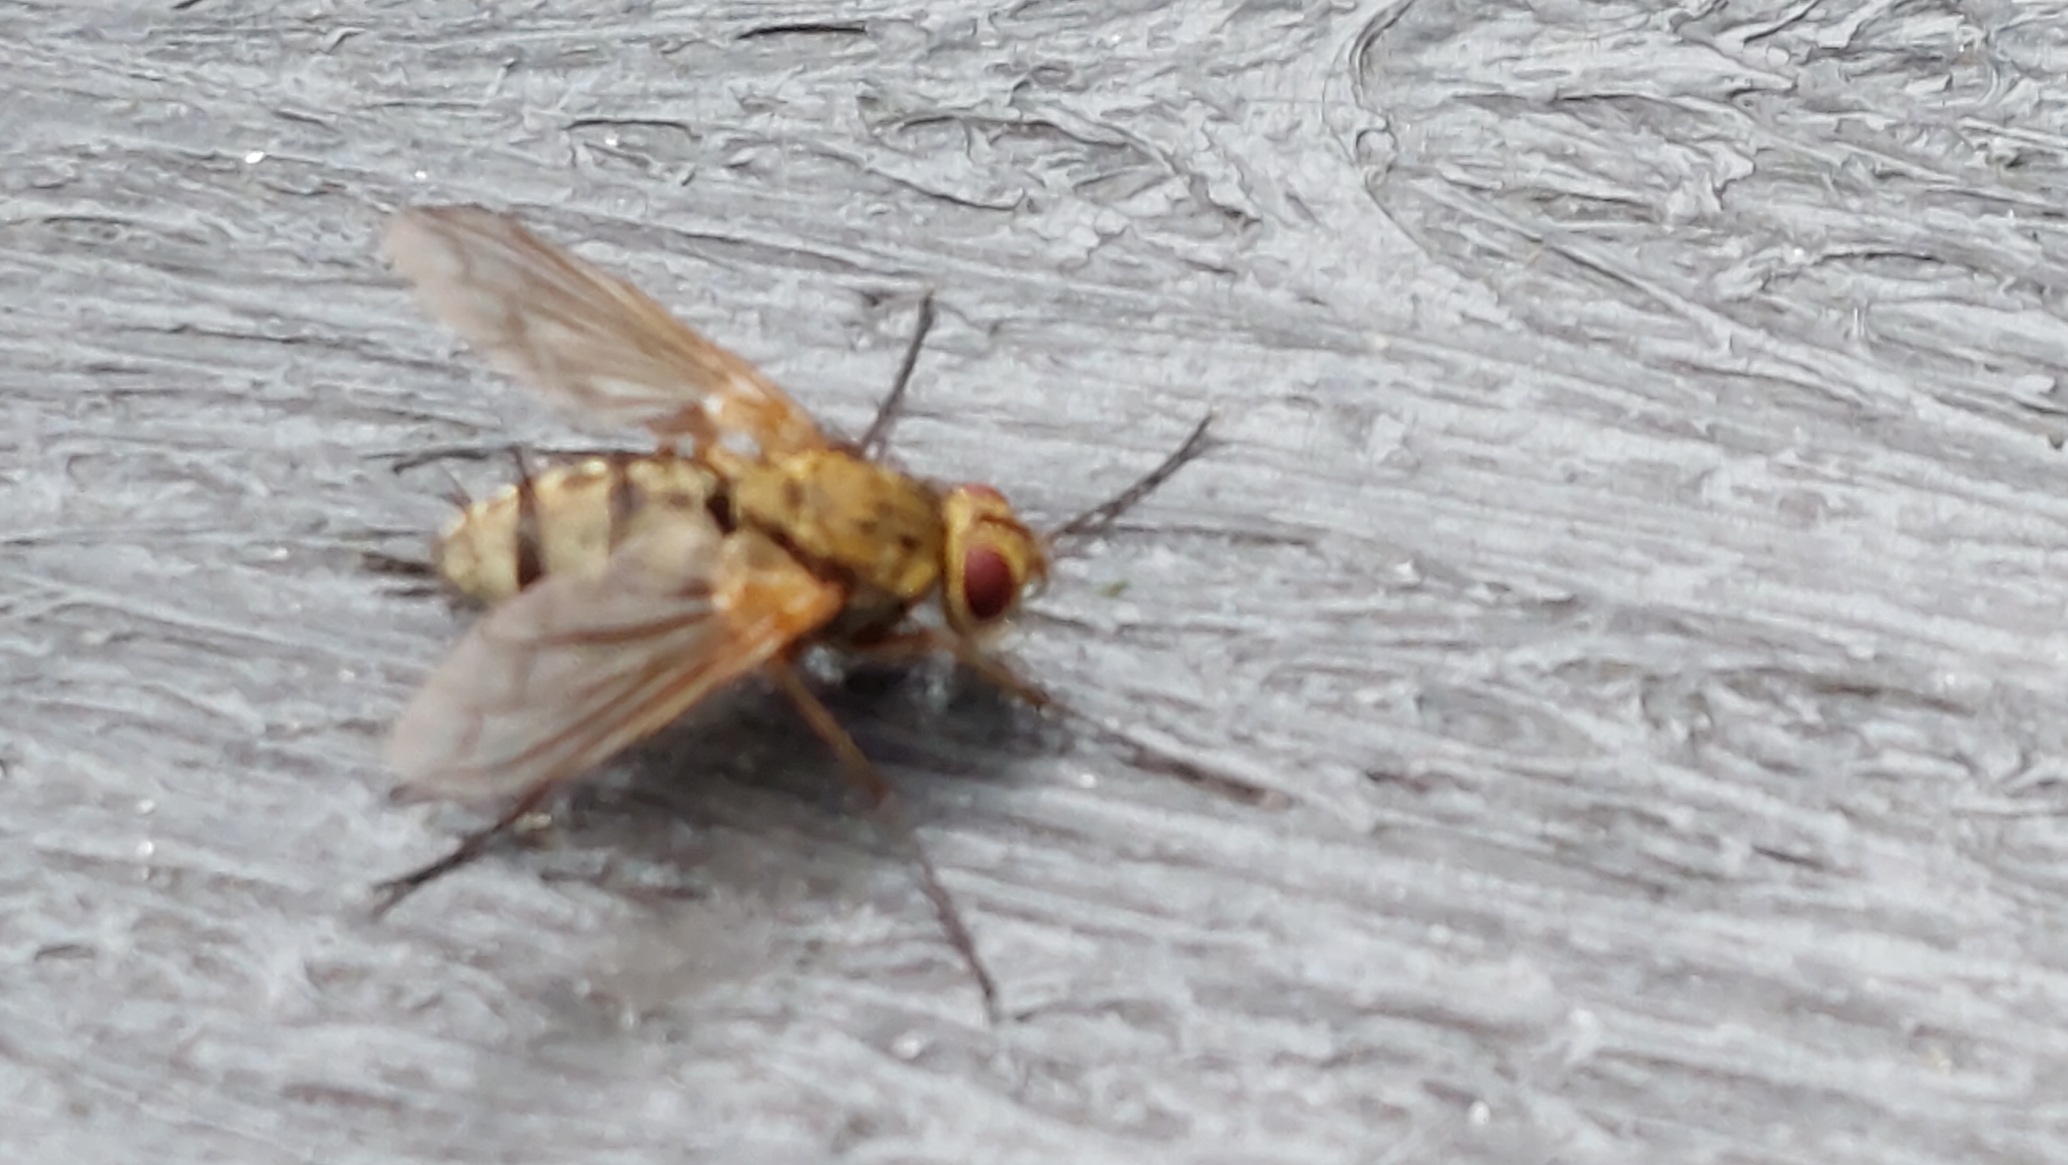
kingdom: Animalia
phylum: Arthropoda
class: Insecta
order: Diptera
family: Tachinidae
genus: Dexiosoma
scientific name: Dexiosoma caninum
